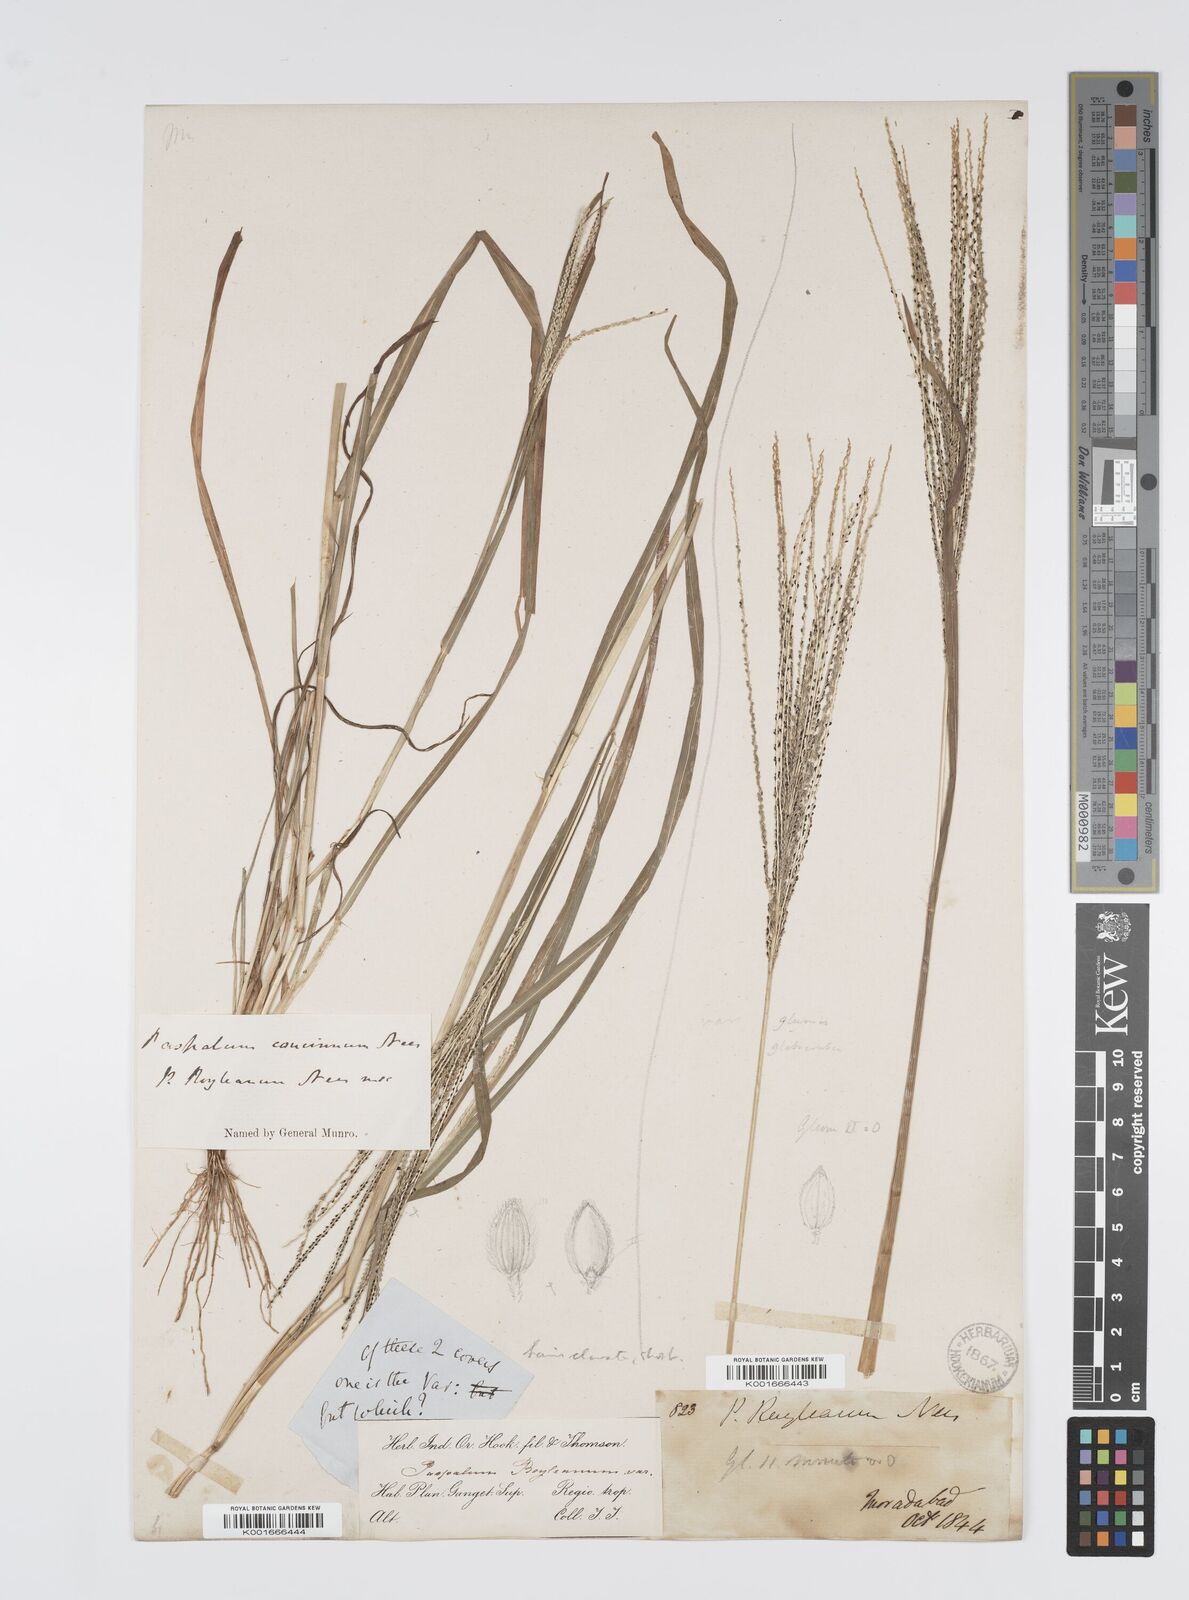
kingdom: Plantae
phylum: Tracheophyta
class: Liliopsida
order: Poales
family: Poaceae
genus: Digitaria
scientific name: Digitaria stricta
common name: Crabgrass
